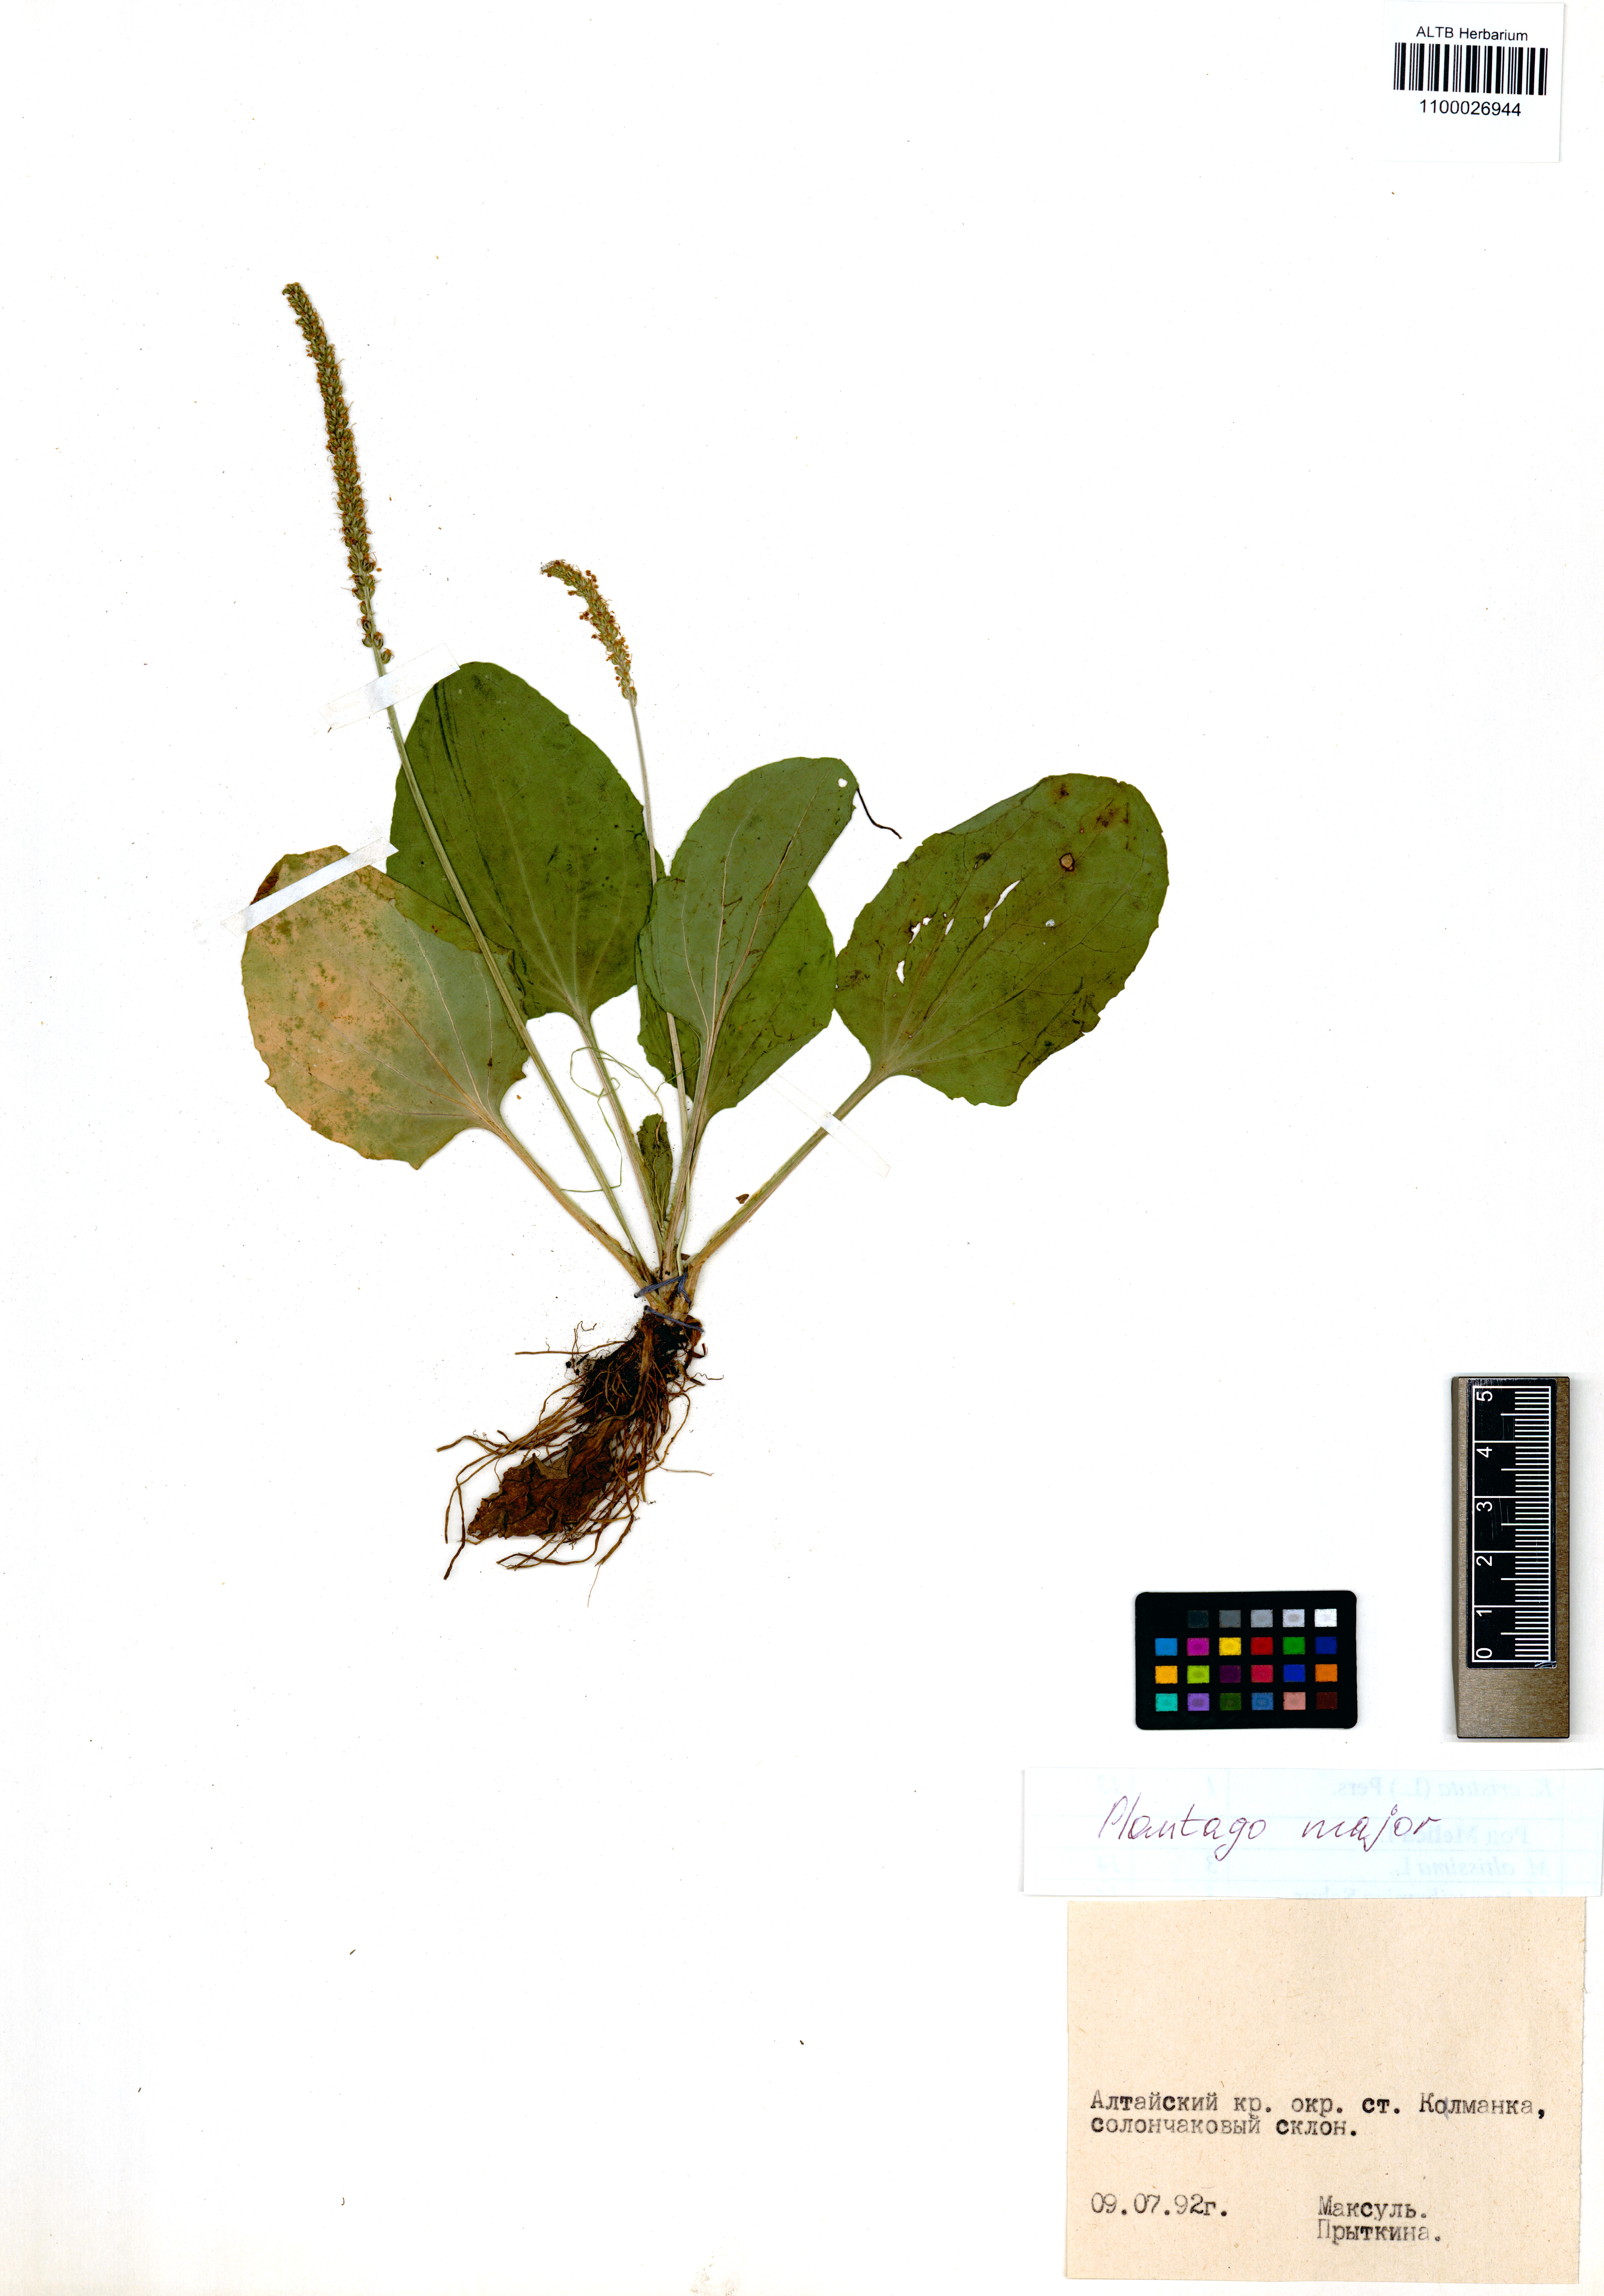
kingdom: Plantae
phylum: Tracheophyta
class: Magnoliopsida
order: Lamiales
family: Plantaginaceae
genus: Plantago
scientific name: Plantago major
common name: Common plantain
